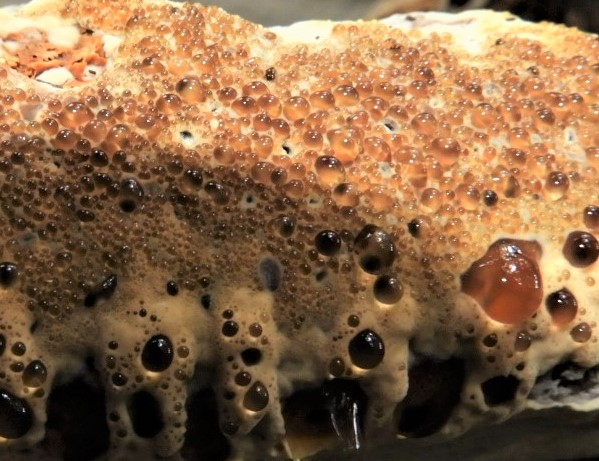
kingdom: Fungi
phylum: Basidiomycota
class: Agaricomycetes
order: Hymenochaetales
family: Hymenochaetaceae
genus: Pseudoinonotus
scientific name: Pseudoinonotus dryadeus
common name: ege-spejlporesvamp
